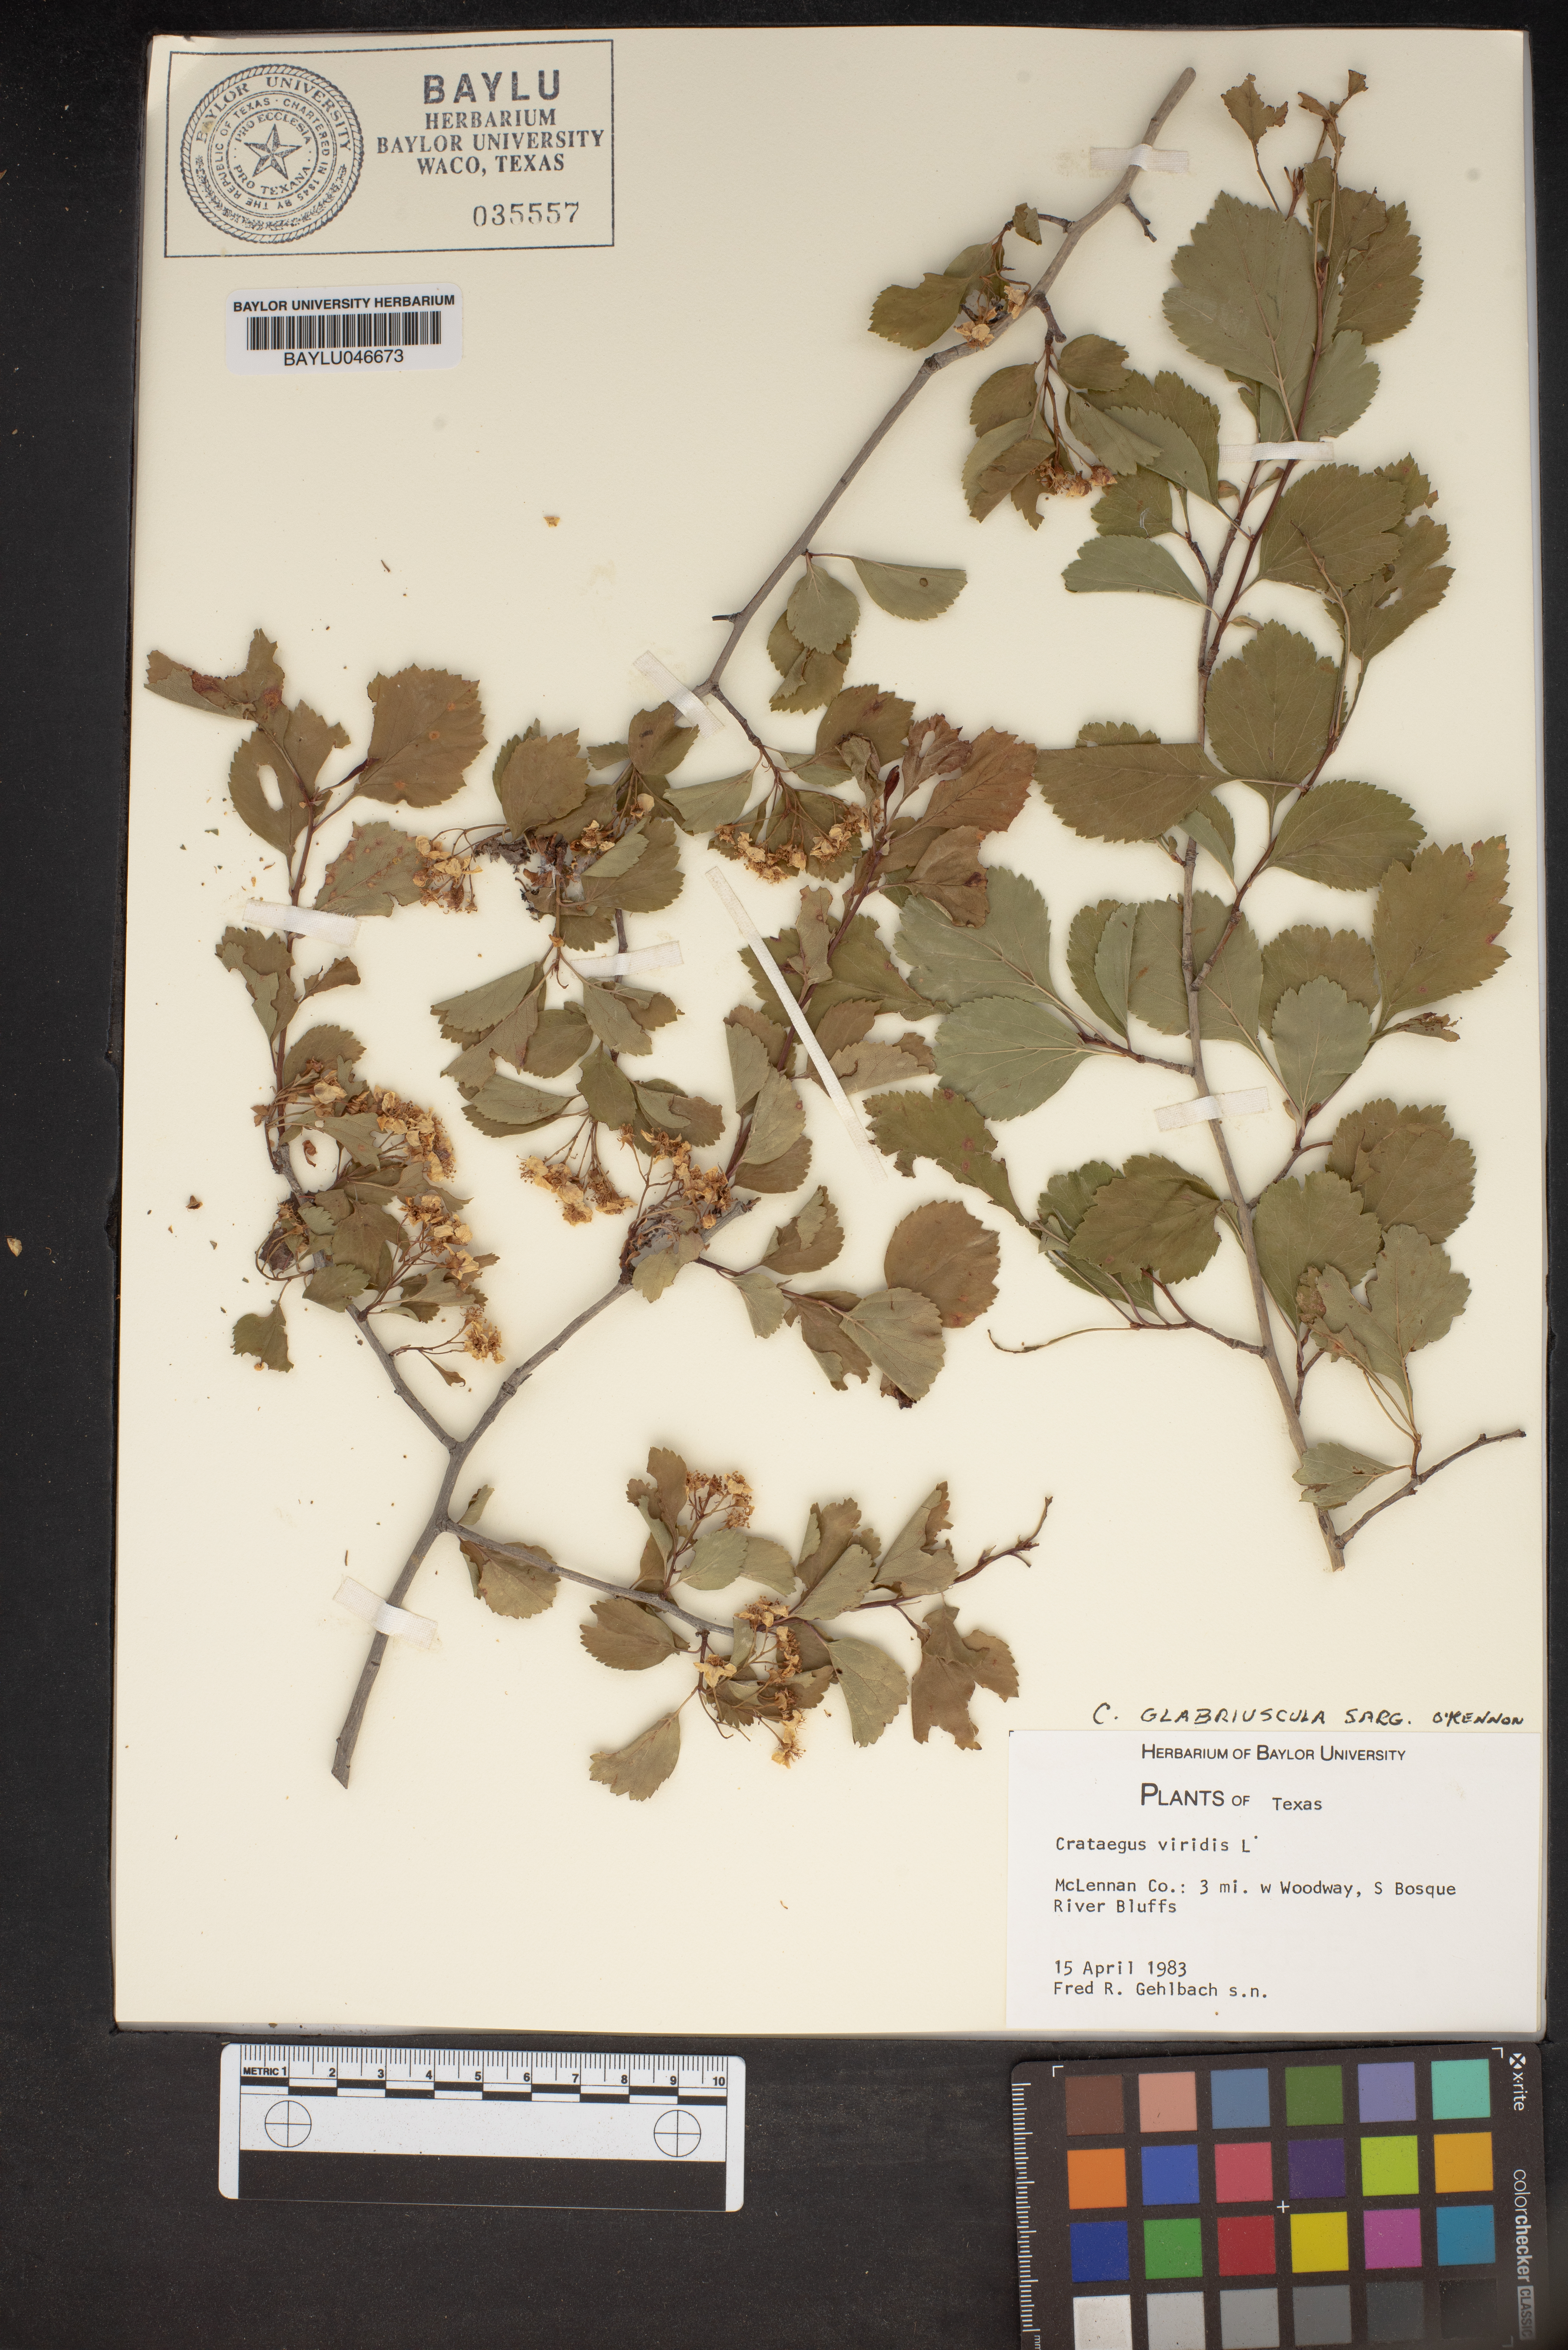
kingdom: Plantae
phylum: Tracheophyta
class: Magnoliopsida
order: Rosales
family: Rosaceae
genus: Crataegus
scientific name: Crataegus viridis
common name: Southernthorn
